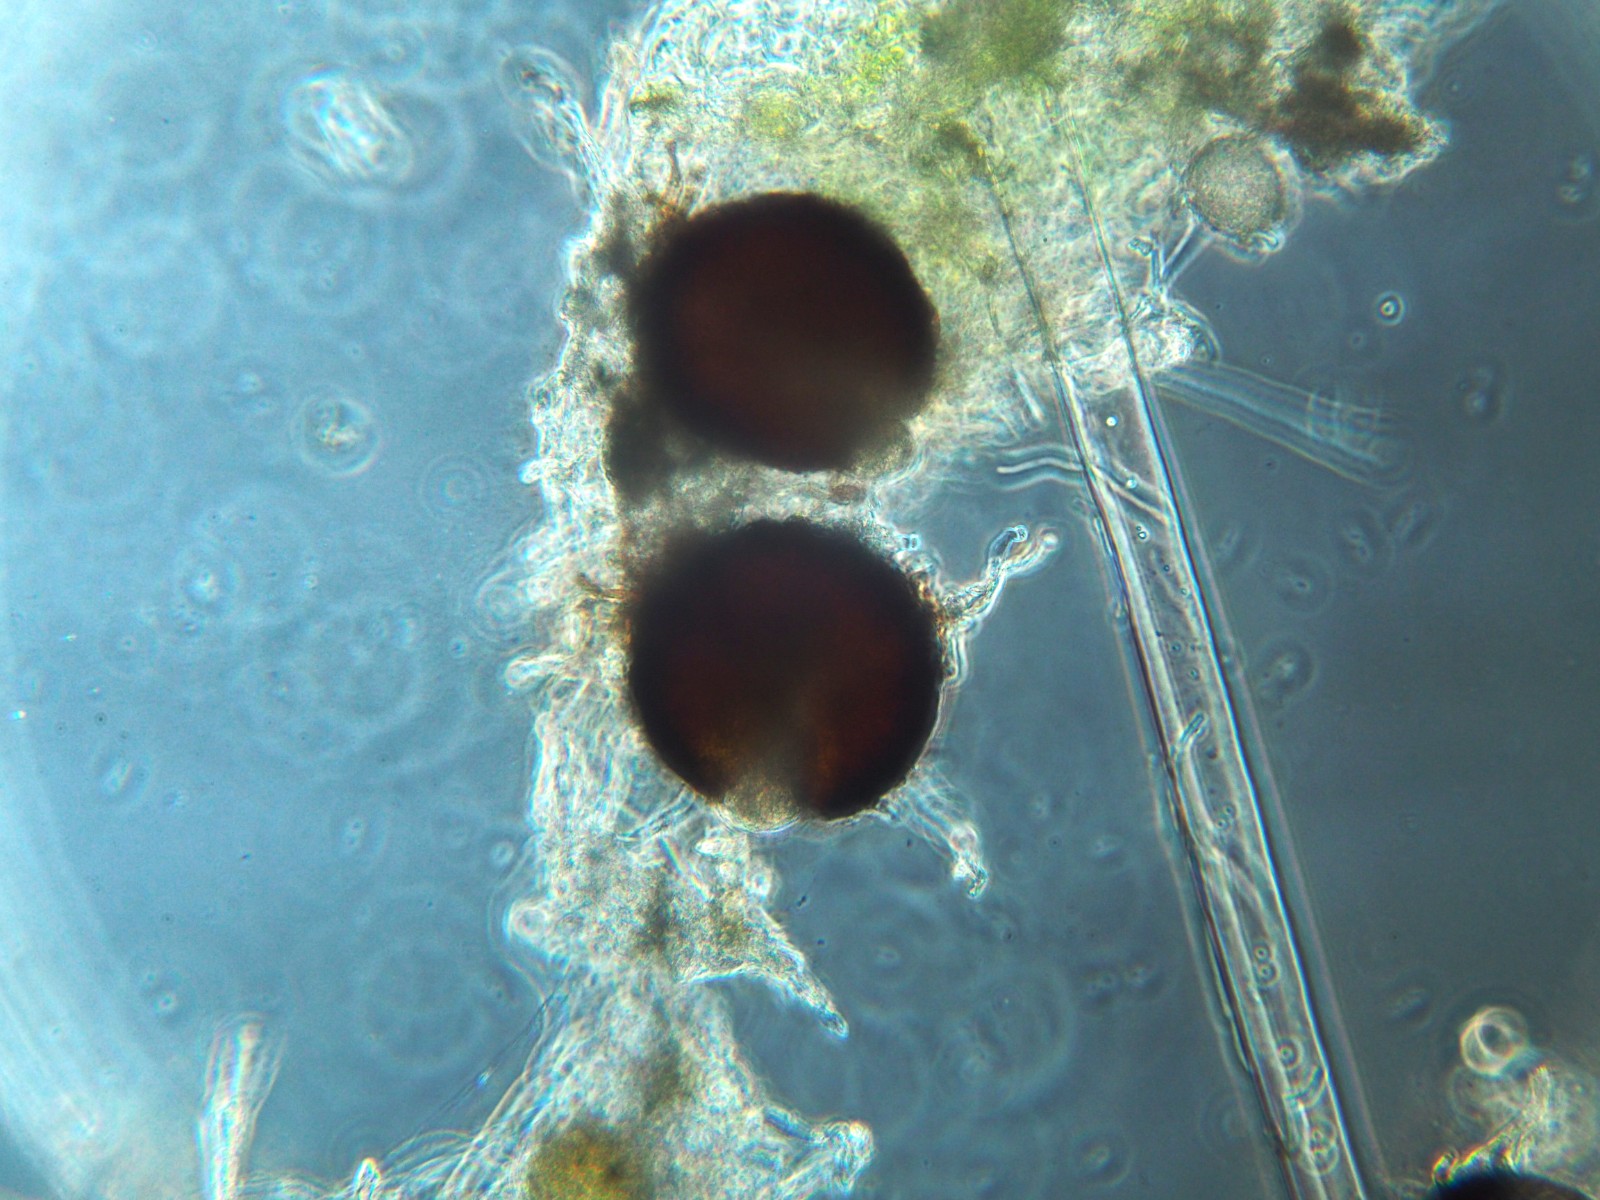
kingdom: Fungi
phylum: Ascomycota
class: Leotiomycetes
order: Helotiales
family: Erysiphaceae
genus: Erysiphe
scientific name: Erysiphe heraclei
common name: skærmplante-meldug
